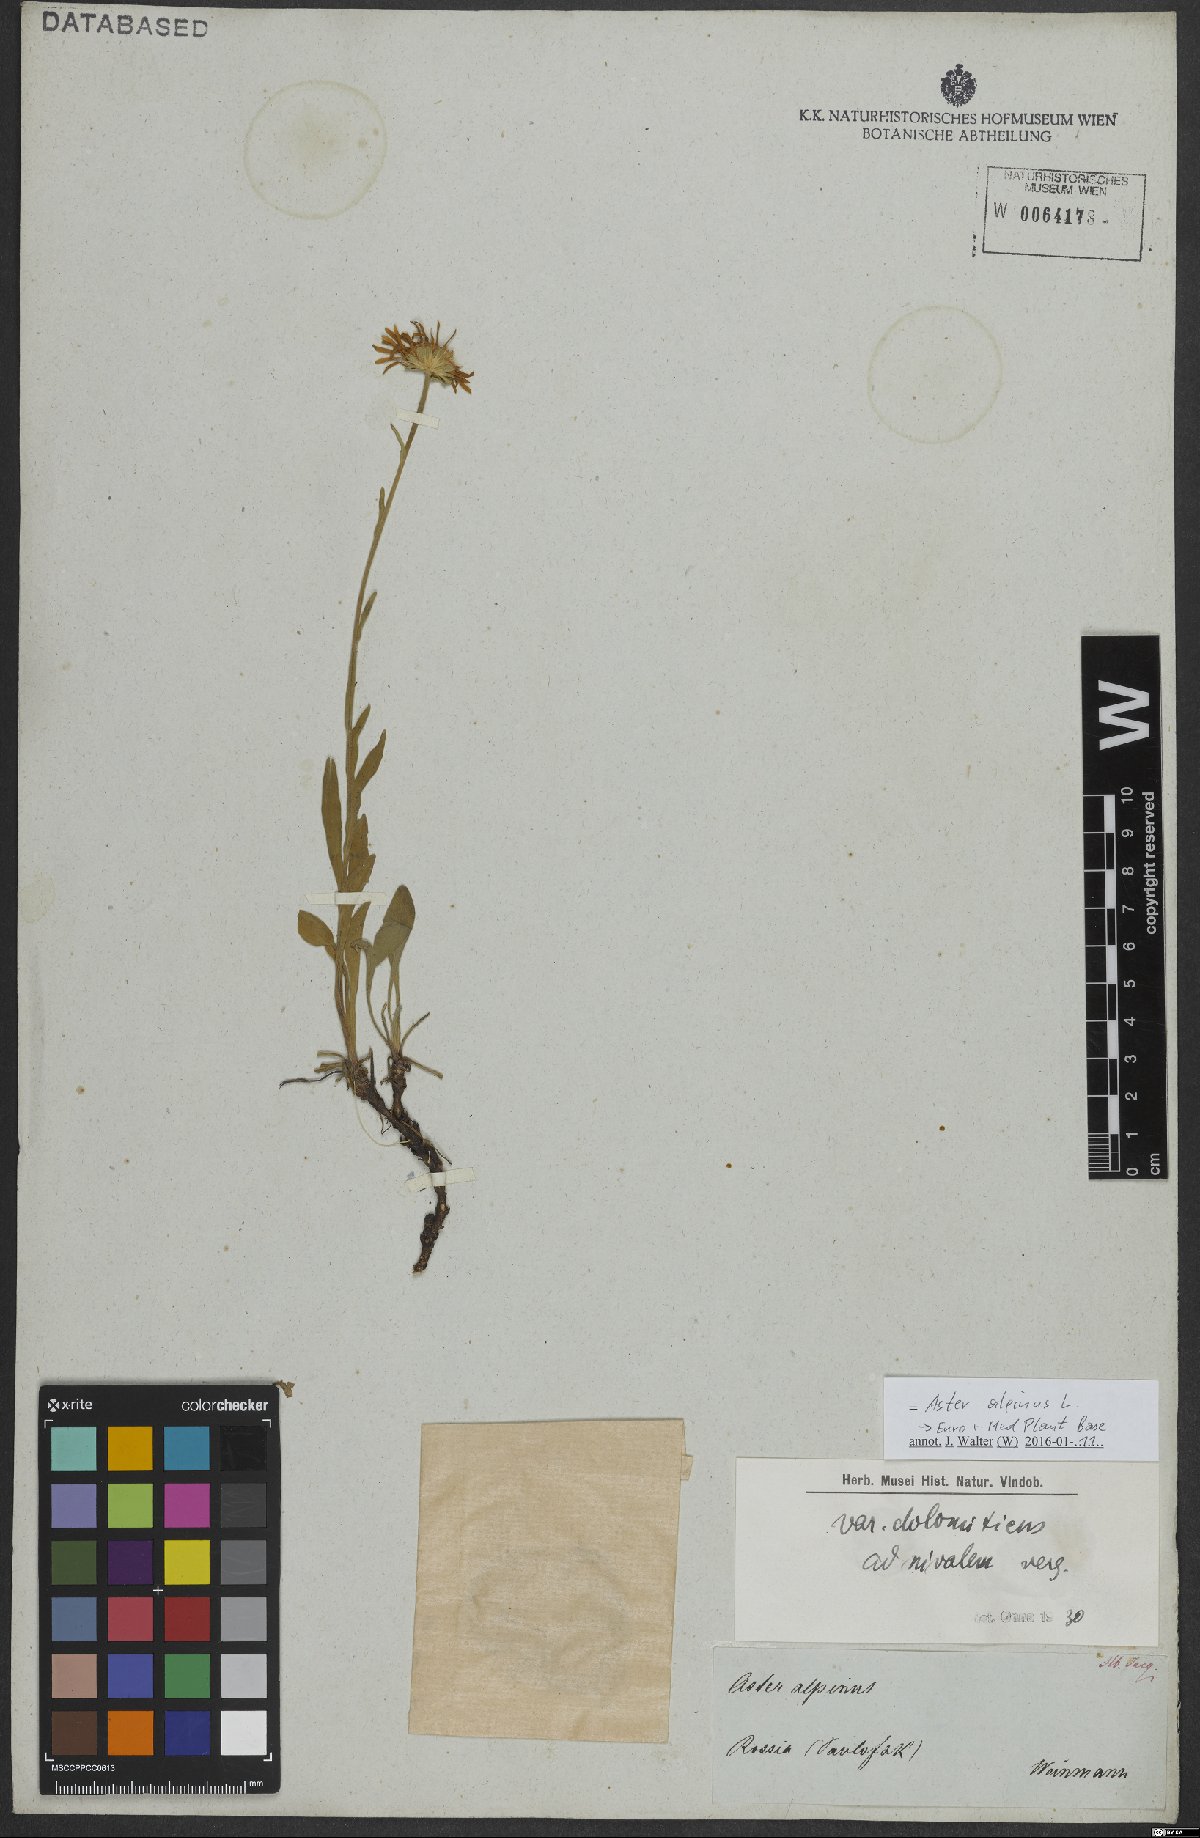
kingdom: Plantae
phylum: Tracheophyta
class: Magnoliopsida
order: Asterales
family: Asteraceae
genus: Aster
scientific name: Aster alpinus
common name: Alpine aster
